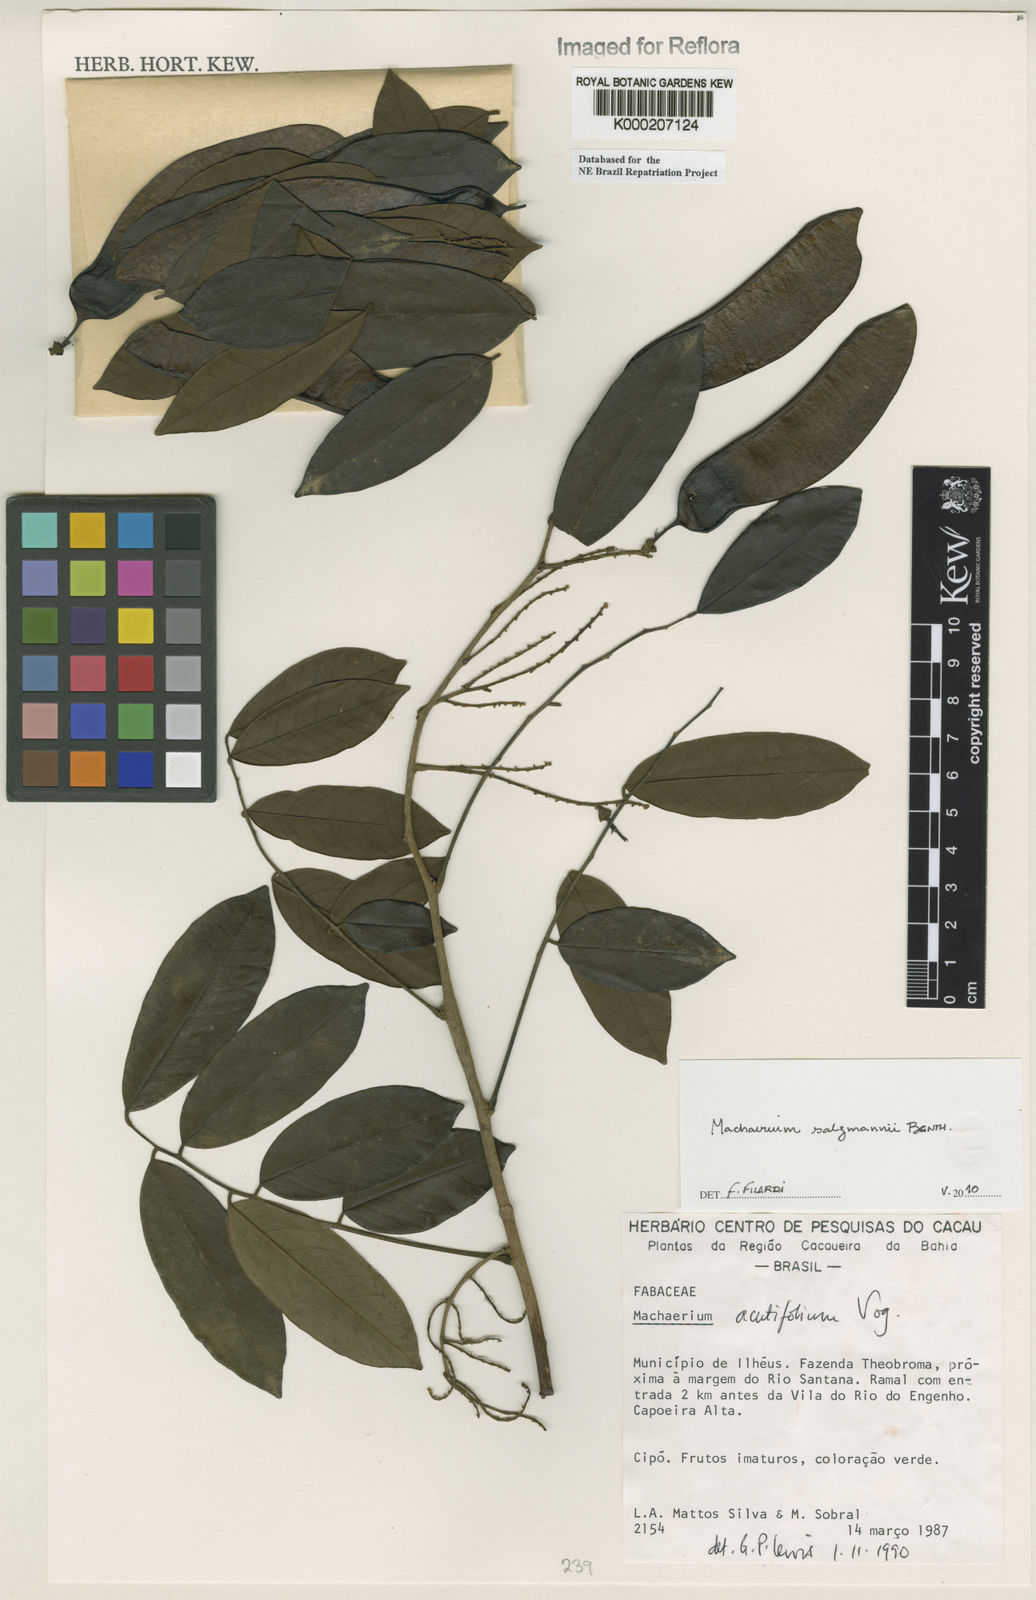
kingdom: Plantae
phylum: Tracheophyta
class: Magnoliopsida
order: Fabales
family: Fabaceae
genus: Machaerium
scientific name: Machaerium acutifolium
